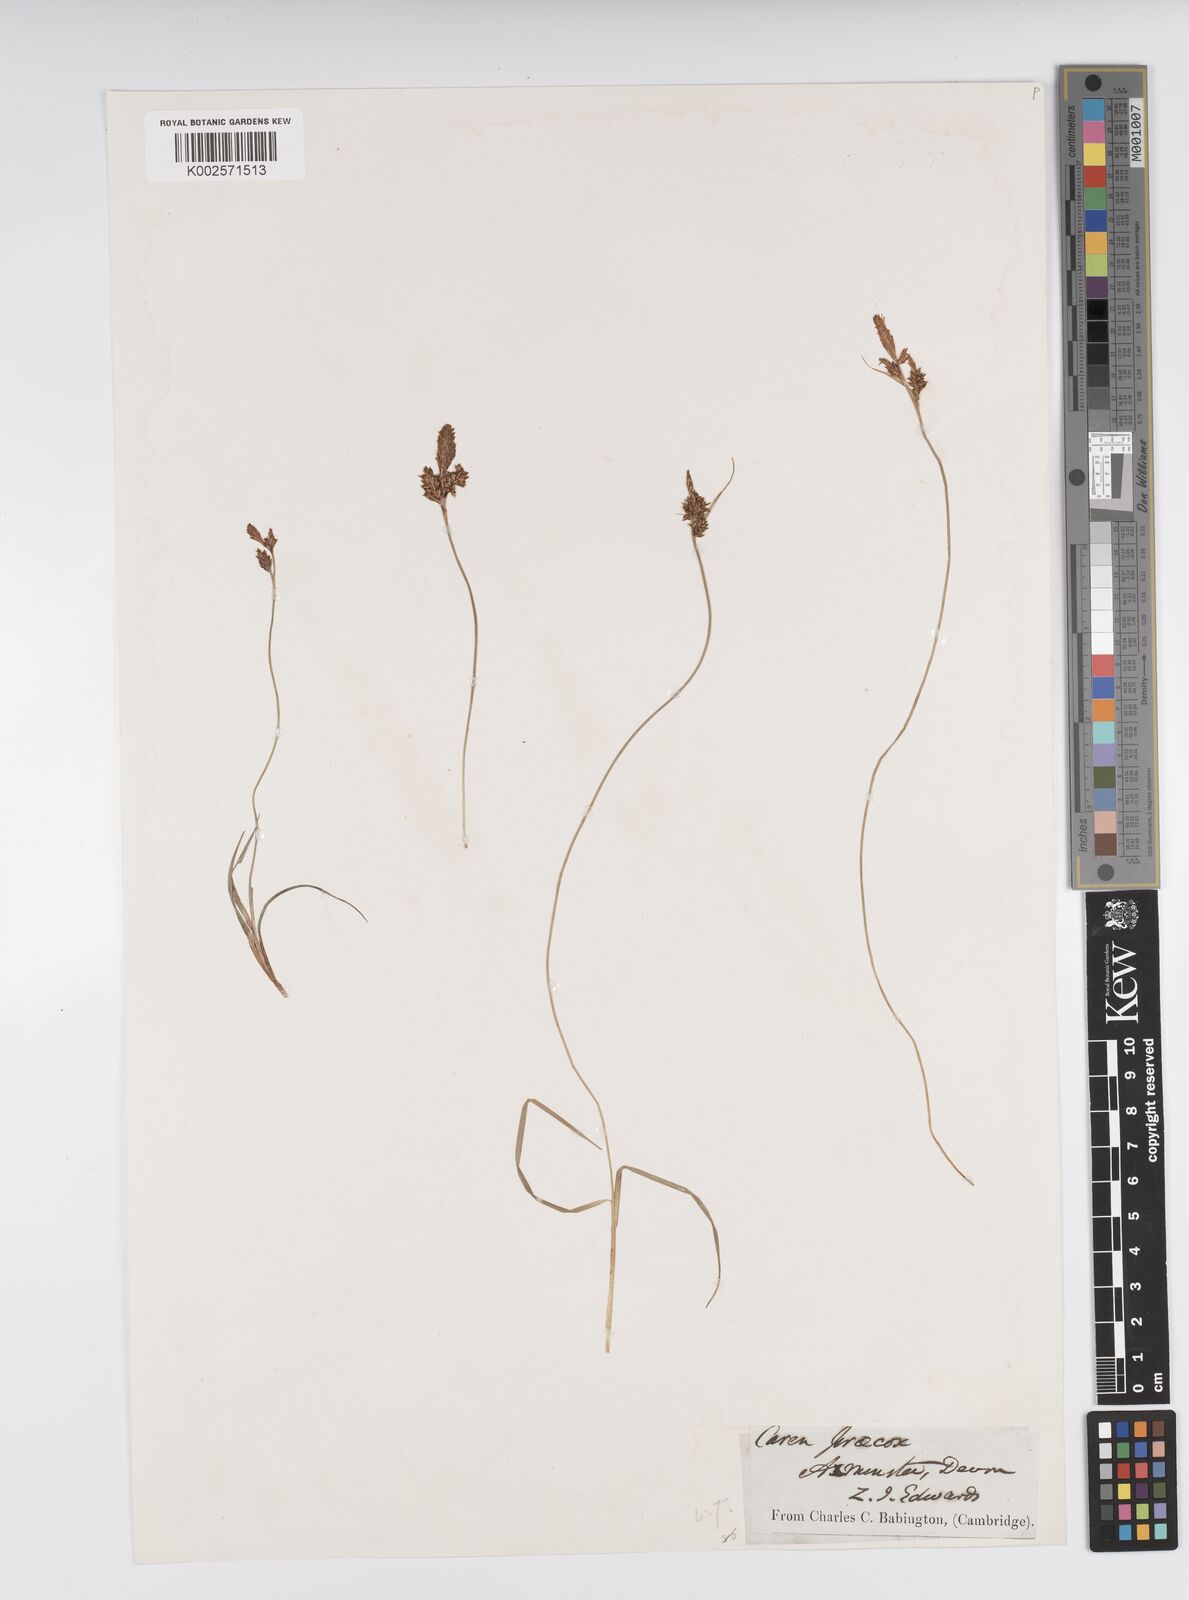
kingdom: Plantae
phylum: Tracheophyta
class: Liliopsida
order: Poales
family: Cyperaceae
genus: Carex
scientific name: Carex caryophyllea
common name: Spring sedge
